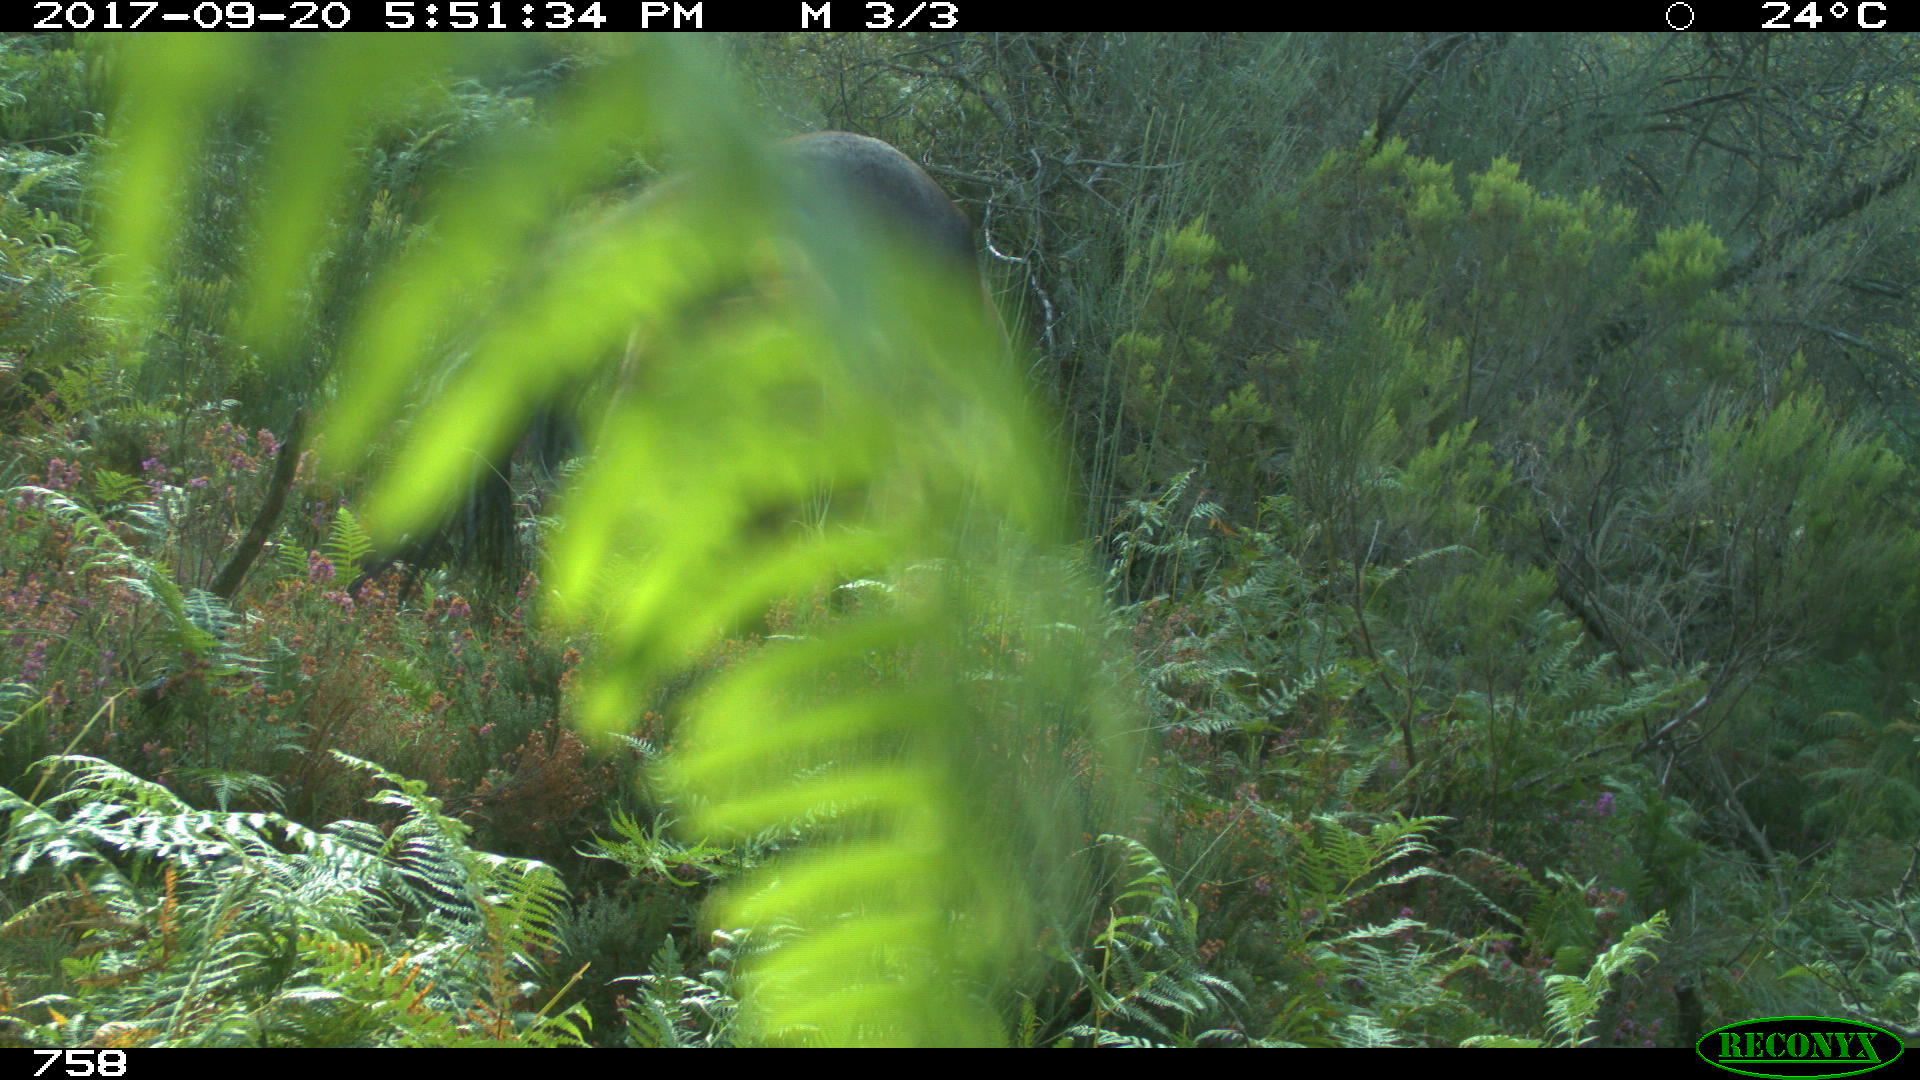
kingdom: Animalia
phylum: Chordata
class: Mammalia
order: Perissodactyla
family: Equidae
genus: Equus
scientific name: Equus caballus
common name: Horse
